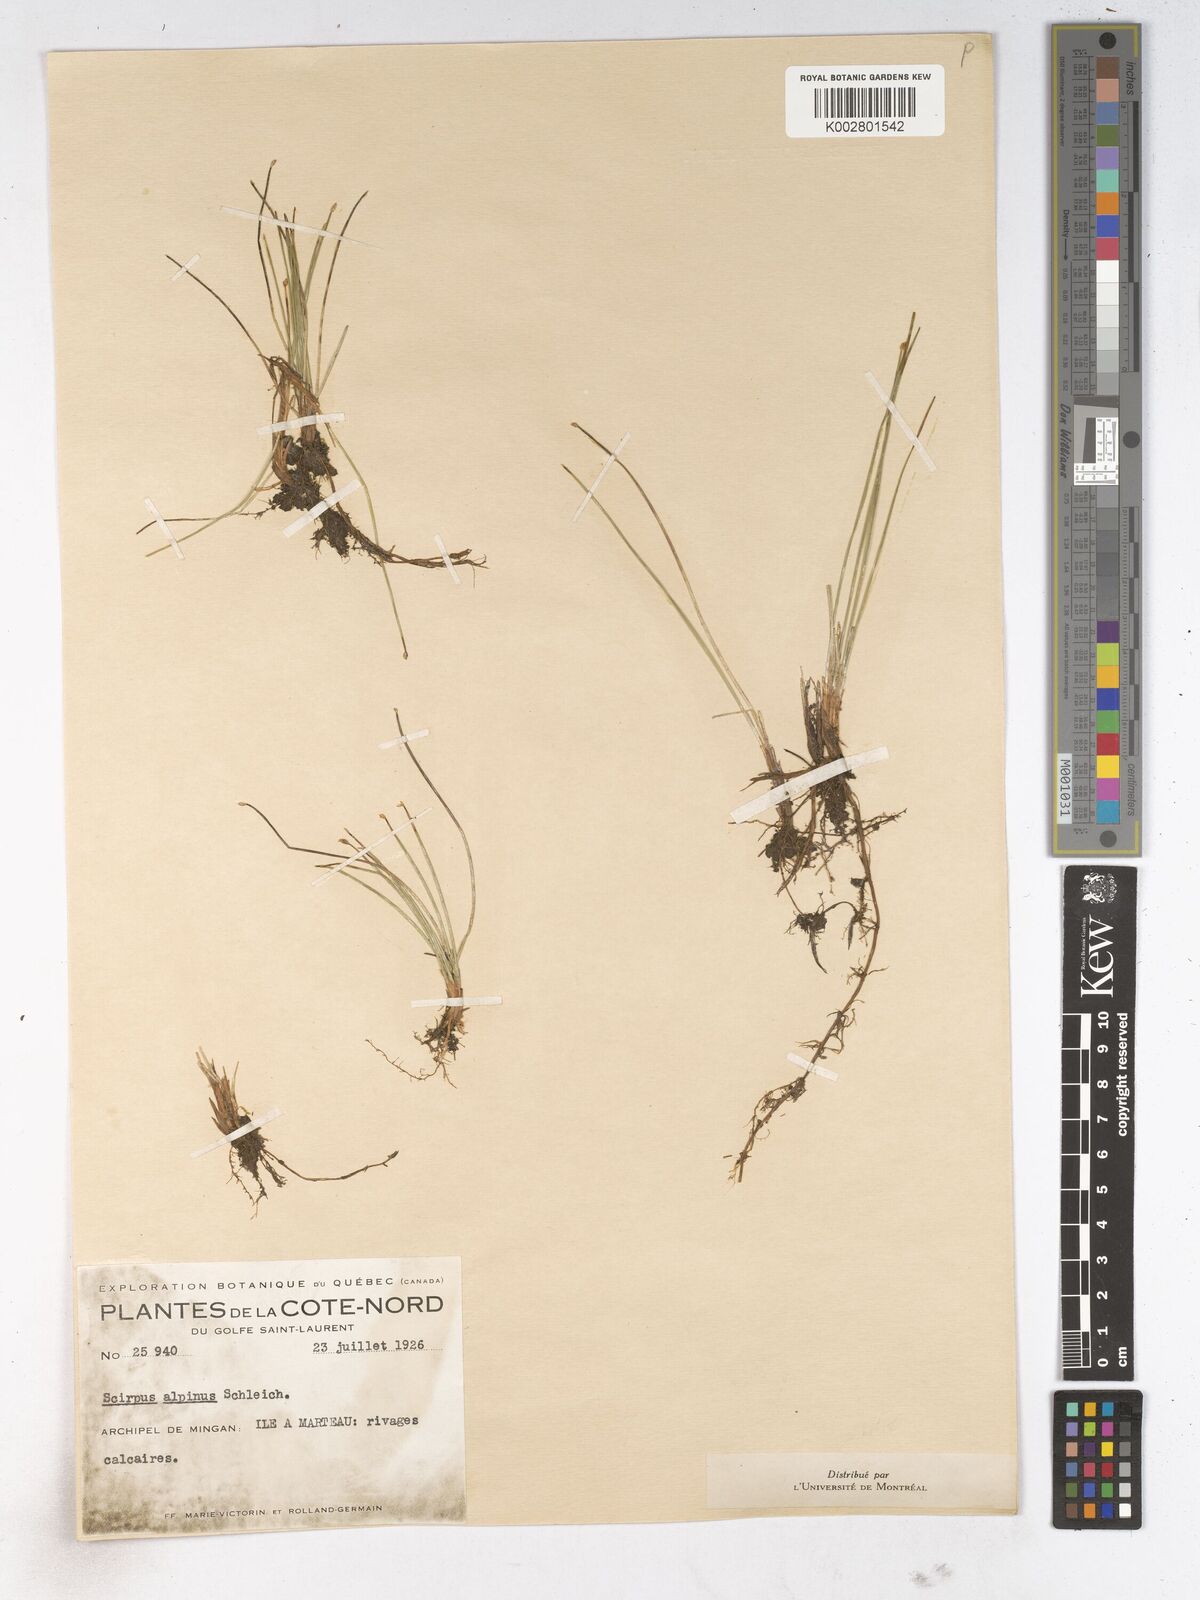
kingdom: Plantae
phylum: Tracheophyta
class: Liliopsida
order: Poales
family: Cyperaceae
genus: Trichophorum
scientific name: Trichophorum pumilum
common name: Rolland's bulrush
